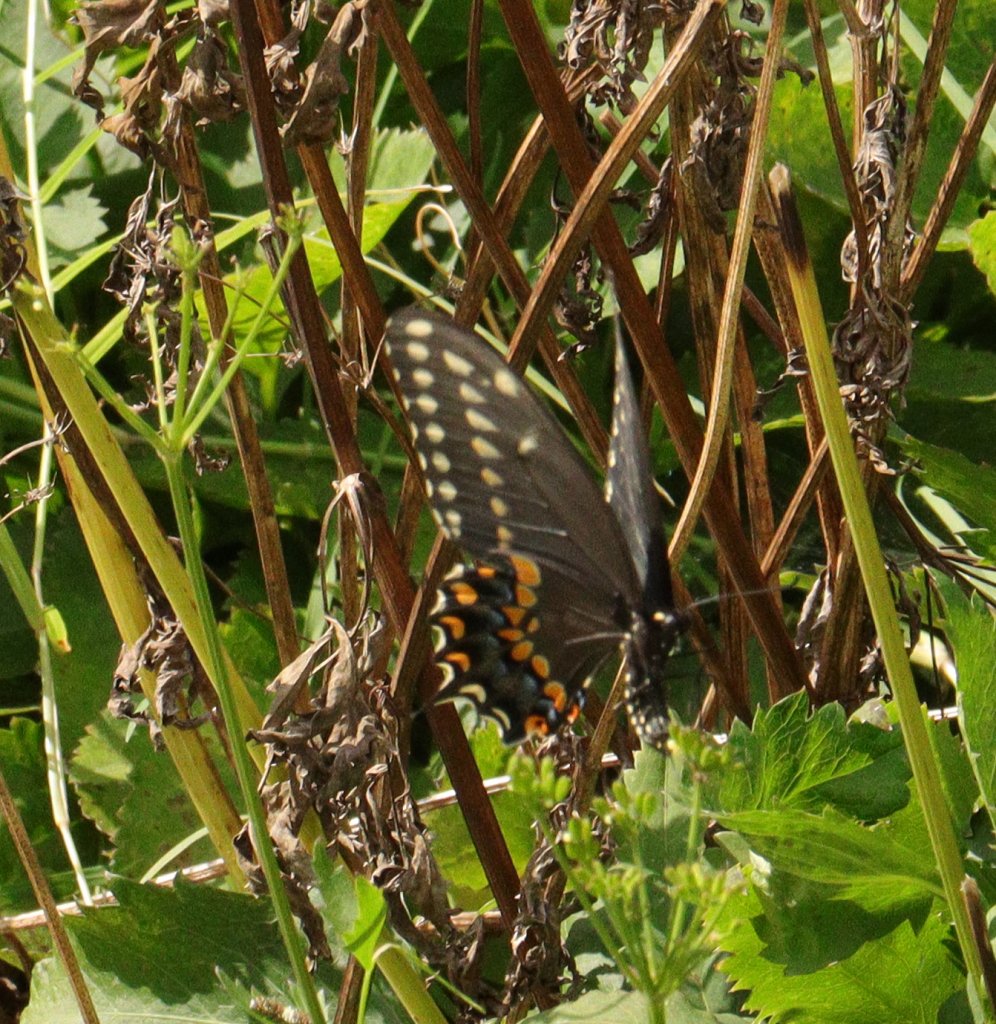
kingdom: Animalia
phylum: Arthropoda
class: Insecta
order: Lepidoptera
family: Papilionidae
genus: Papilio
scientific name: Papilio polyxenes
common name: Black Swallowtail
